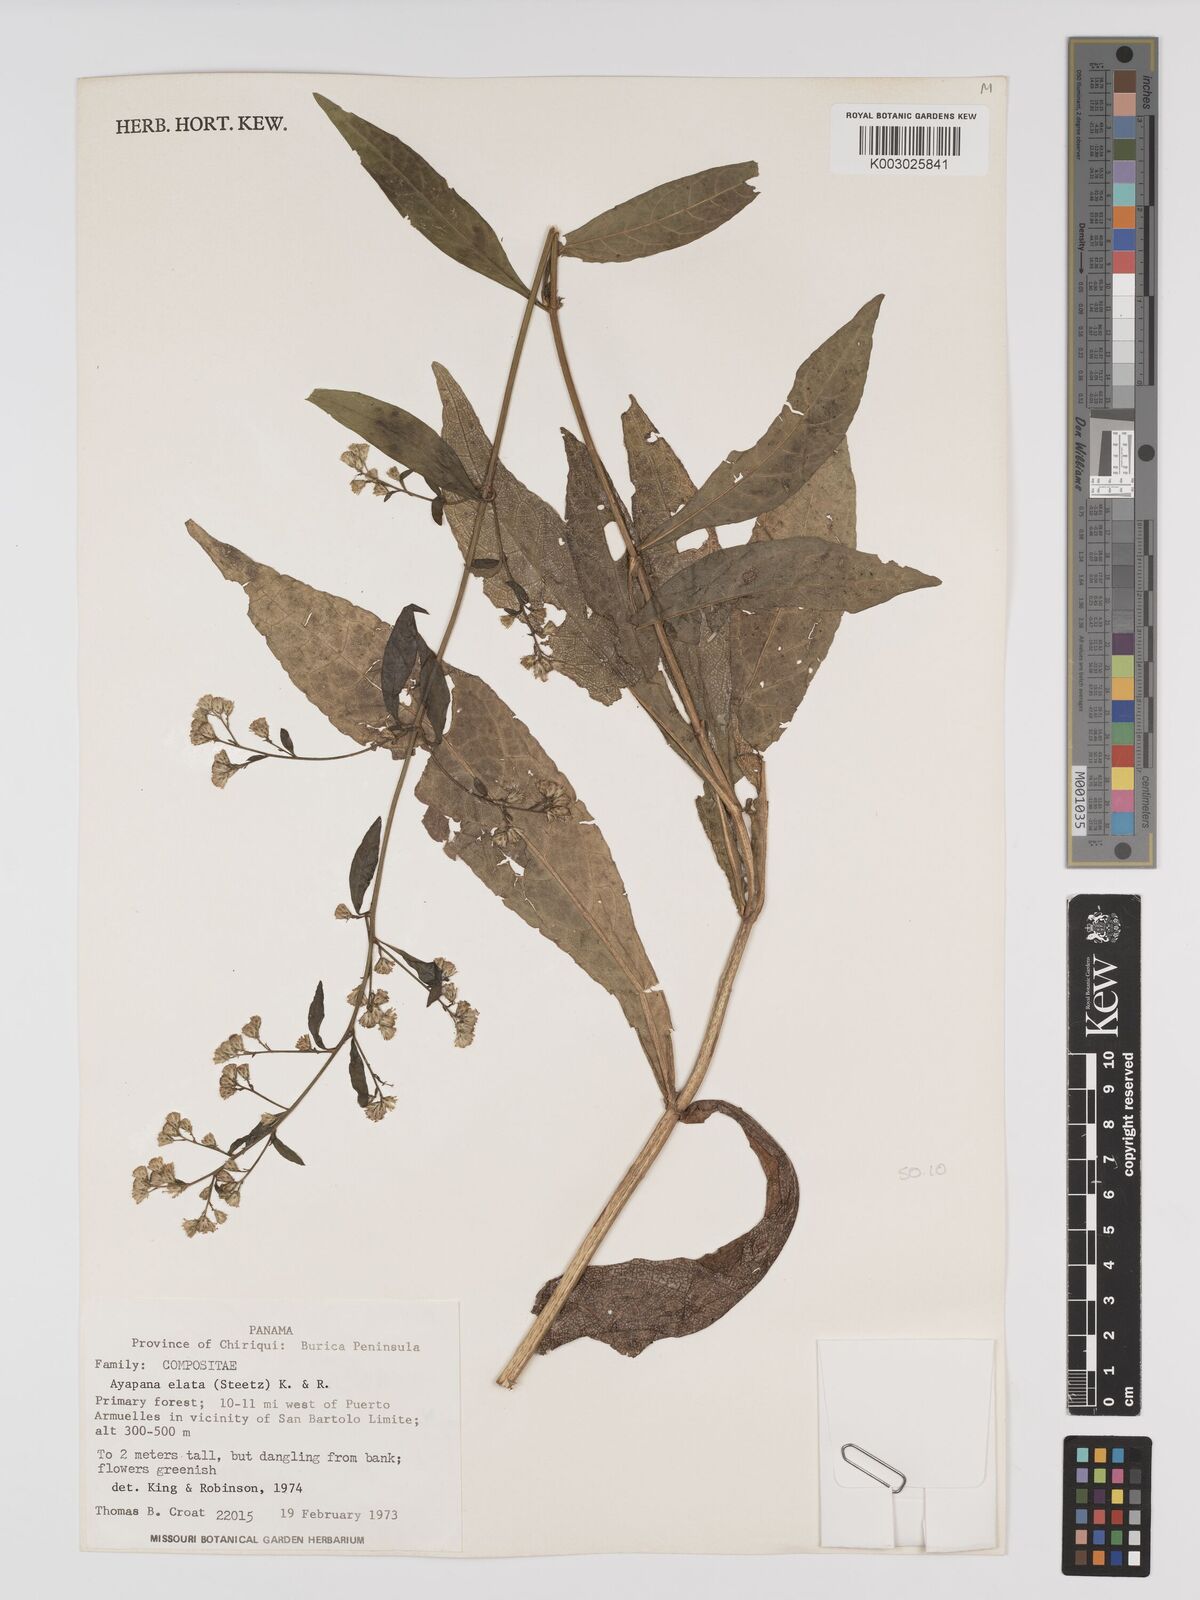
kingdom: Plantae
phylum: Tracheophyta
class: Magnoliopsida
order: Asterales
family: Asteraceae
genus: Ayapana
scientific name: Ayapana elata
